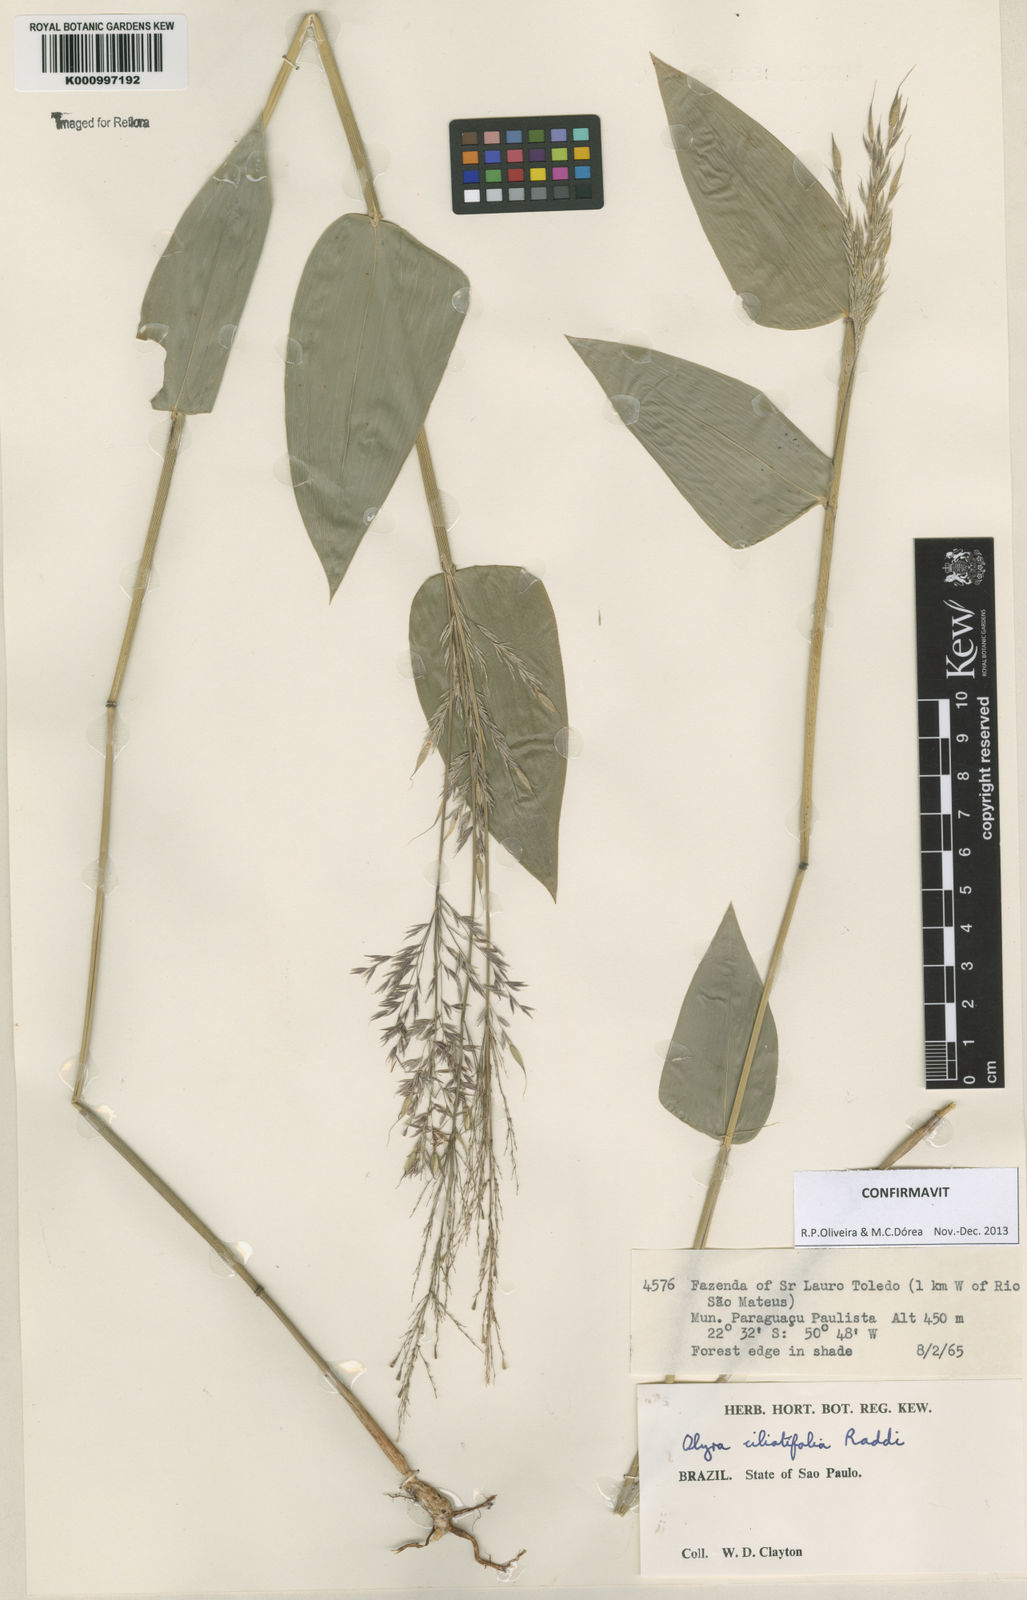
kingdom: Plantae
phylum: Tracheophyta
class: Liliopsida
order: Poales
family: Poaceae
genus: Olyra
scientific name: Olyra ciliatifolia
